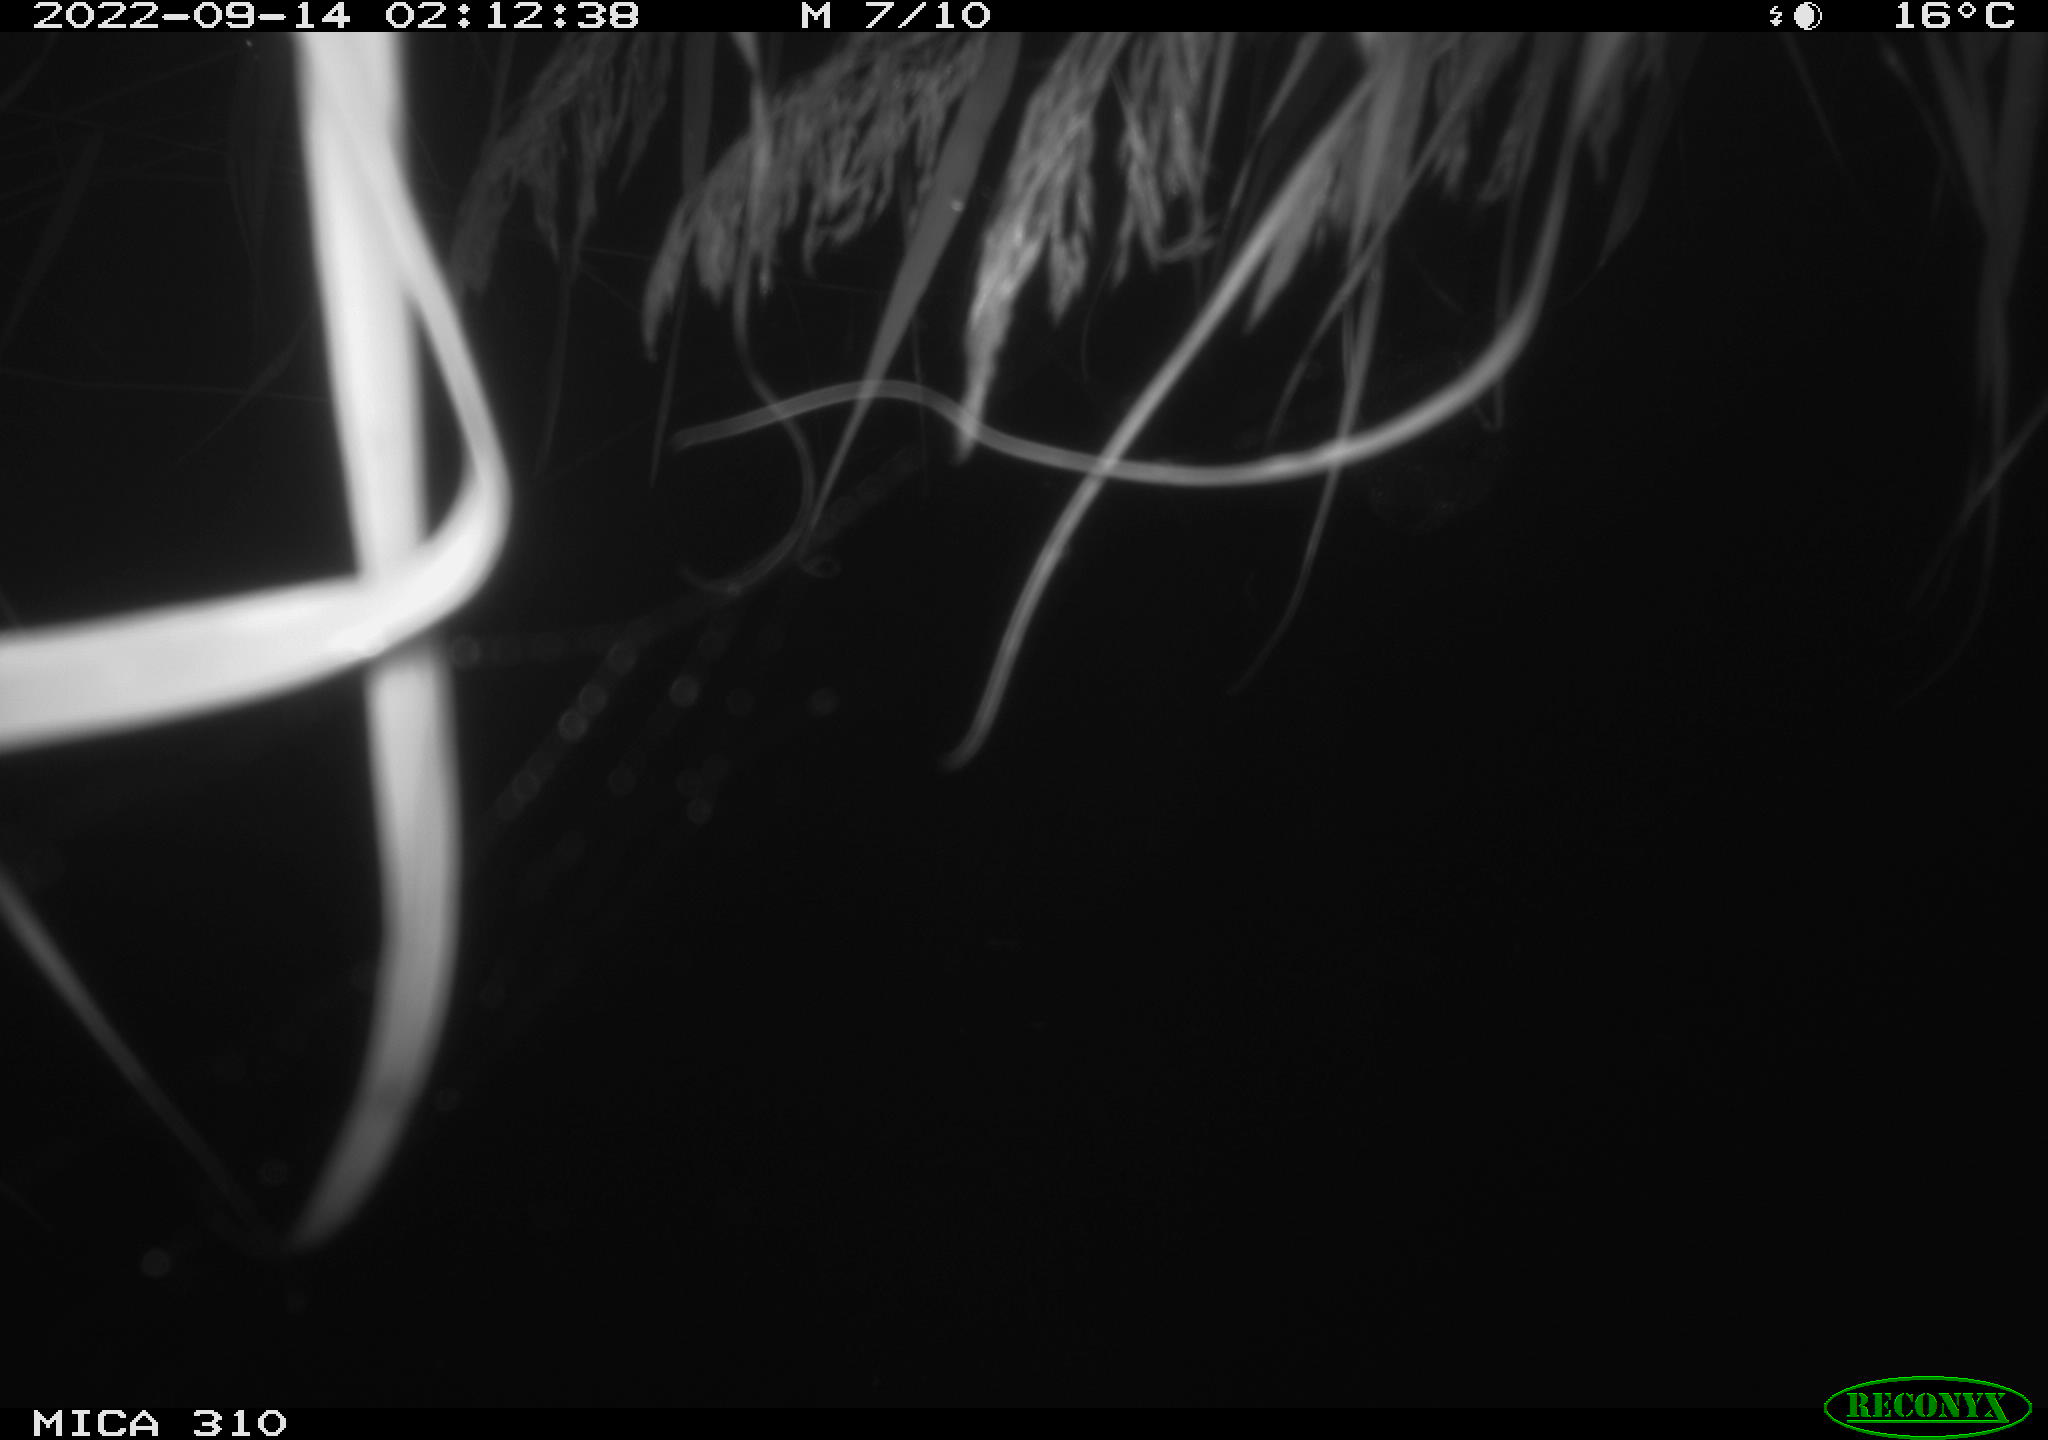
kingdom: Animalia
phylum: Chordata
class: Aves
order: Anseriformes
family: Anatidae
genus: Anas
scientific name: Anas
